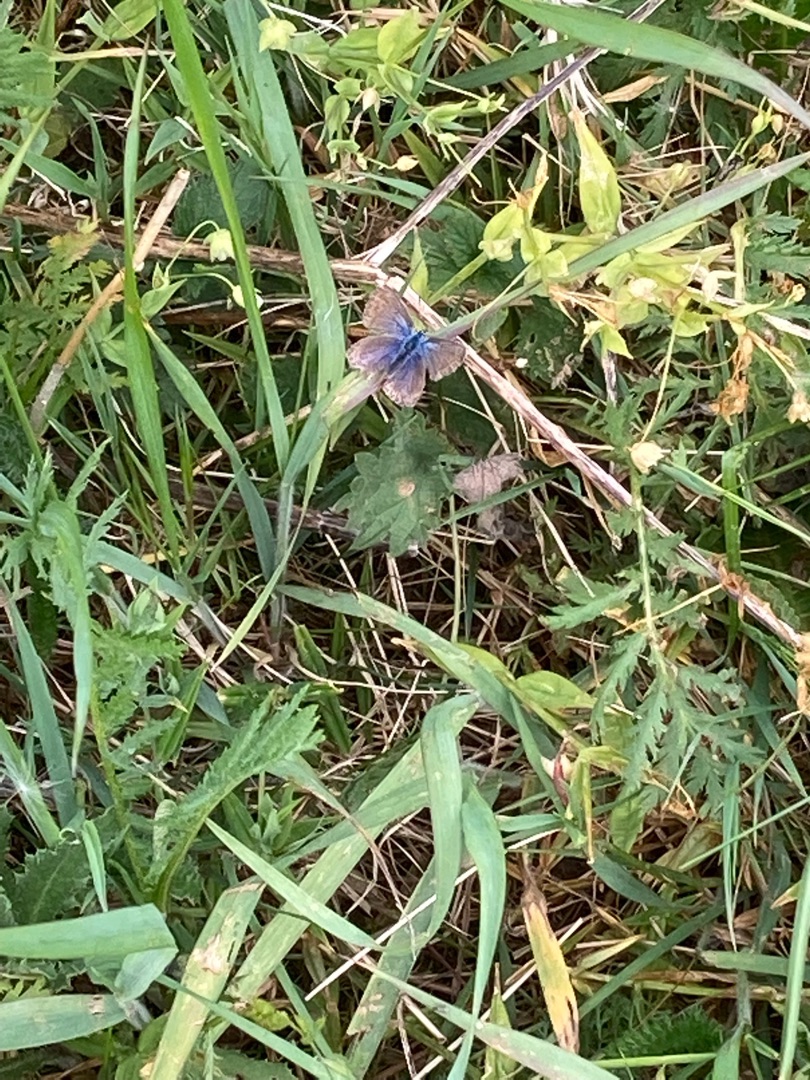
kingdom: Animalia
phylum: Arthropoda
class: Insecta
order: Lepidoptera
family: Lycaenidae
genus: Polyommatus
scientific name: Polyommatus icarus
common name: Almindelig blåfugl
